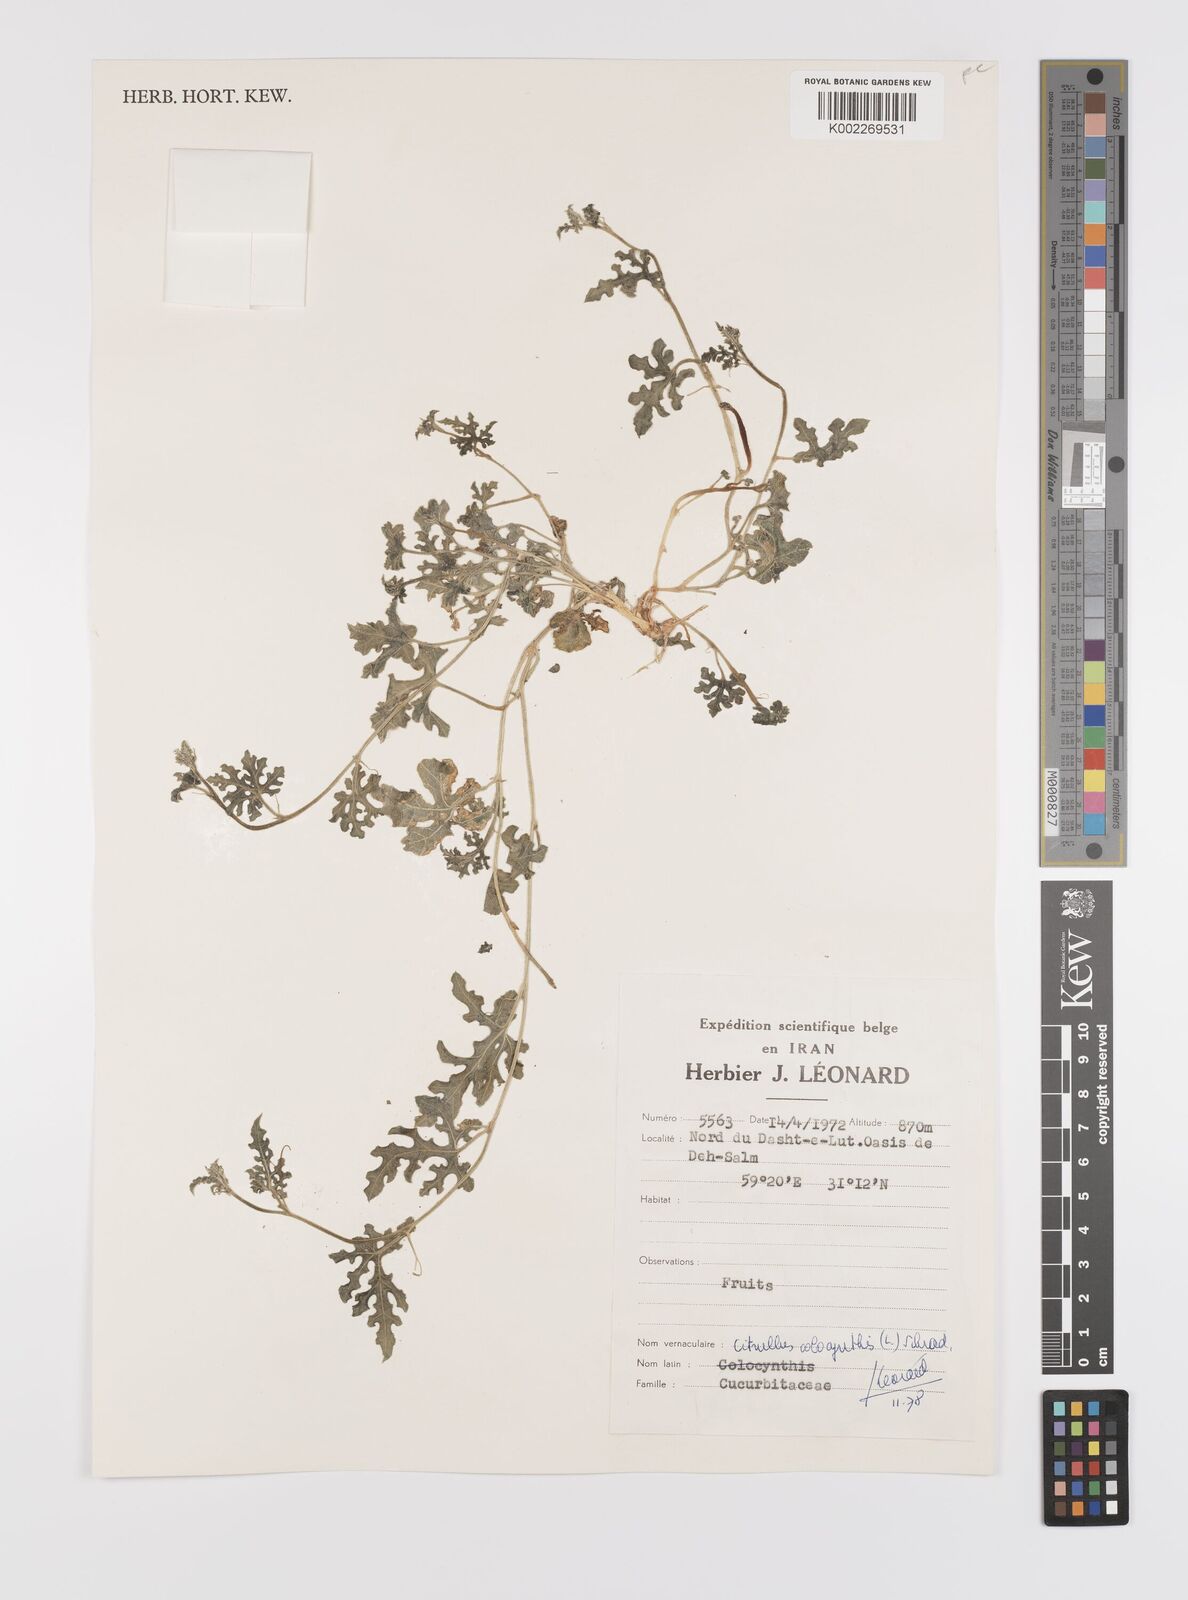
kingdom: Plantae
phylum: Tracheophyta
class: Magnoliopsida
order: Cucurbitales
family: Cucurbitaceae
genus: Citrullus
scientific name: Citrullus colocynthis
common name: Colocynth
